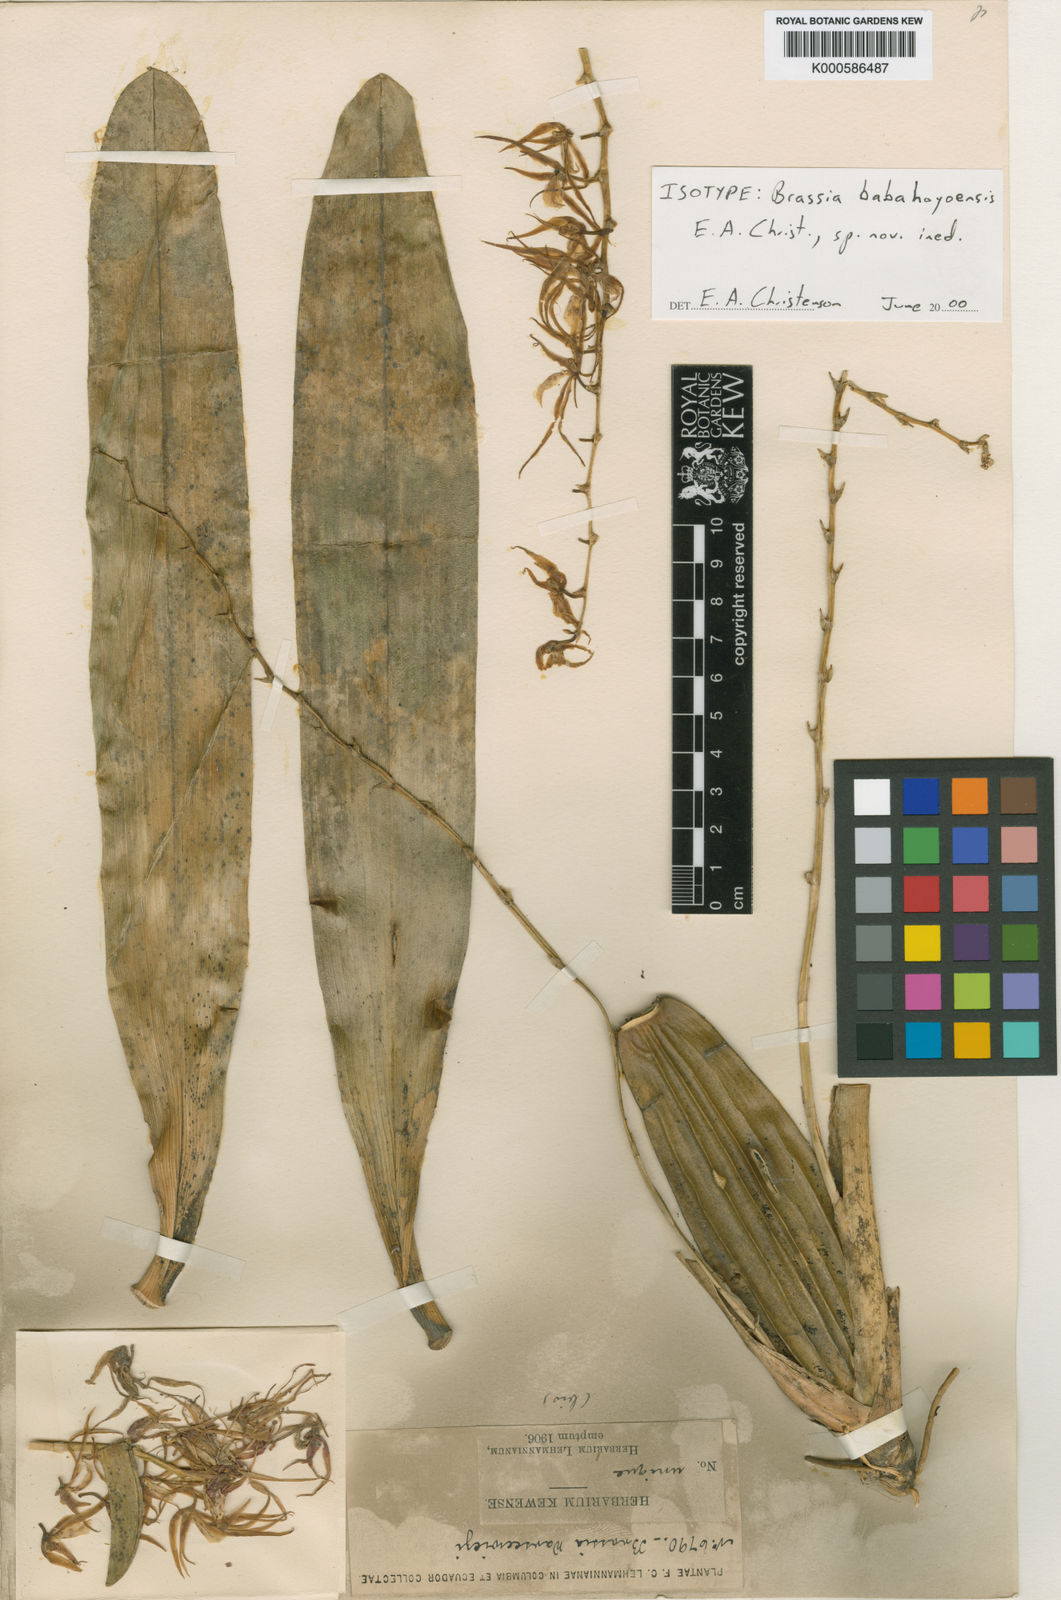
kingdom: Plantae
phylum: Tracheophyta
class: Liliopsida
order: Asparagales
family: Orchidaceae
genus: Brassia
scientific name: Brassia
